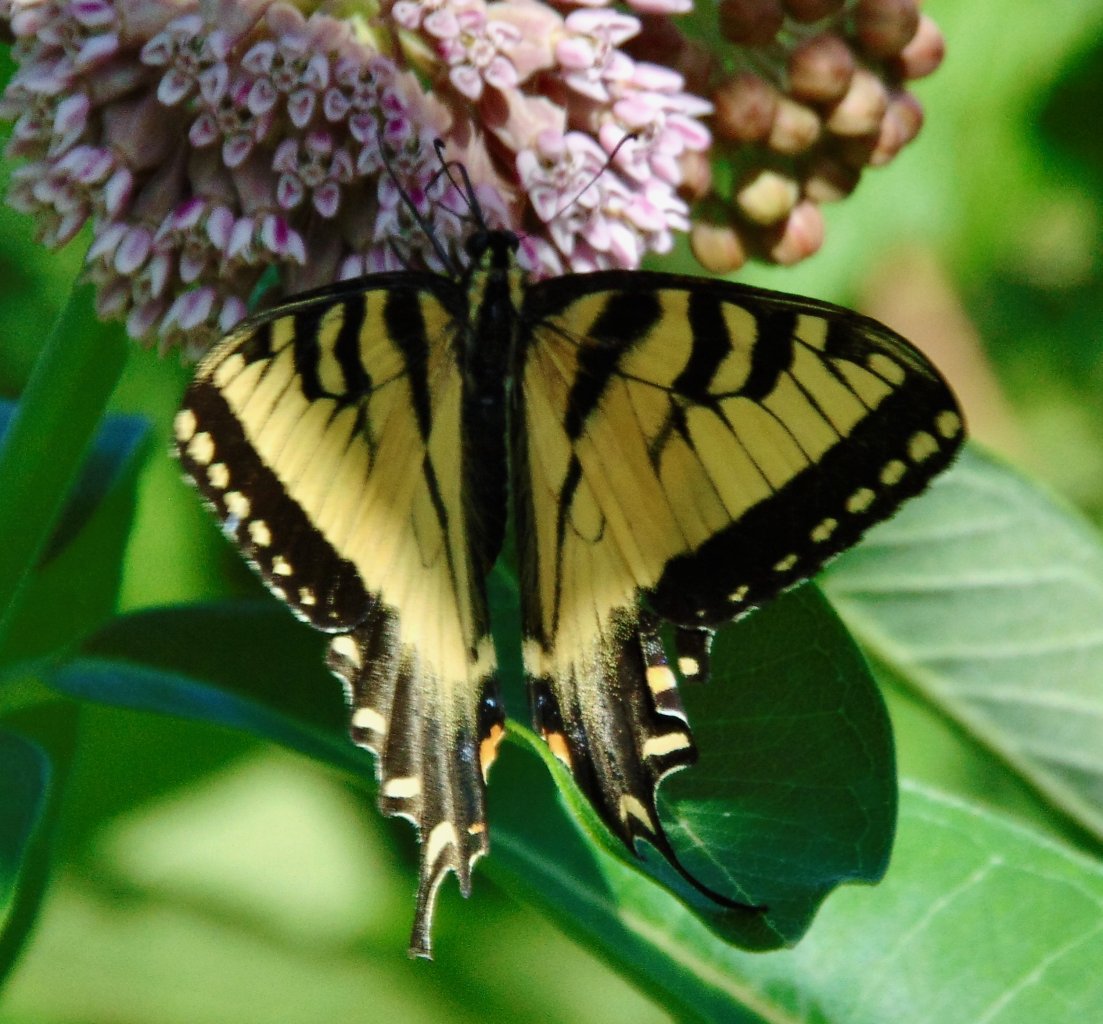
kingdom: Animalia
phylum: Arthropoda
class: Insecta
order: Lepidoptera
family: Papilionidae
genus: Pterourus
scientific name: Pterourus glaucus
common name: Eastern Tiger Swallowtail
